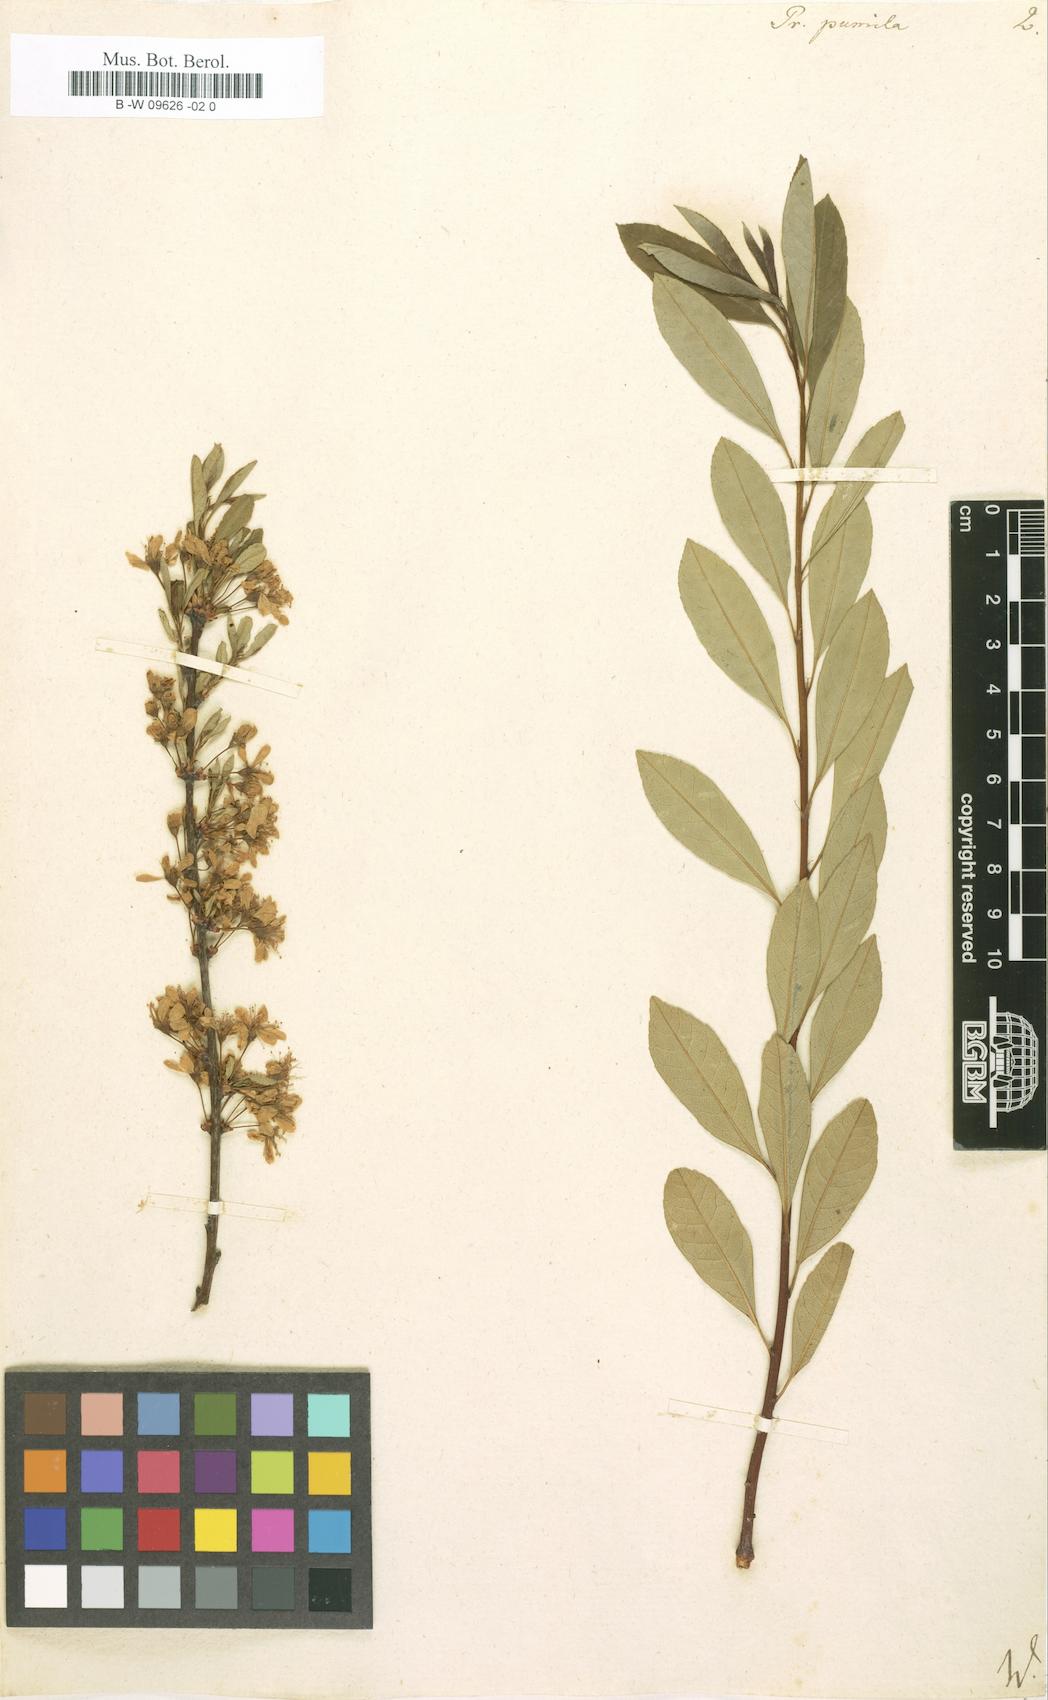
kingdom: Plantae
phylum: Tracheophyta
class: Magnoliopsida
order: Rosales
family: Rosaceae
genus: Prunus
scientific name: Prunus pumila
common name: Dwarf cherry
